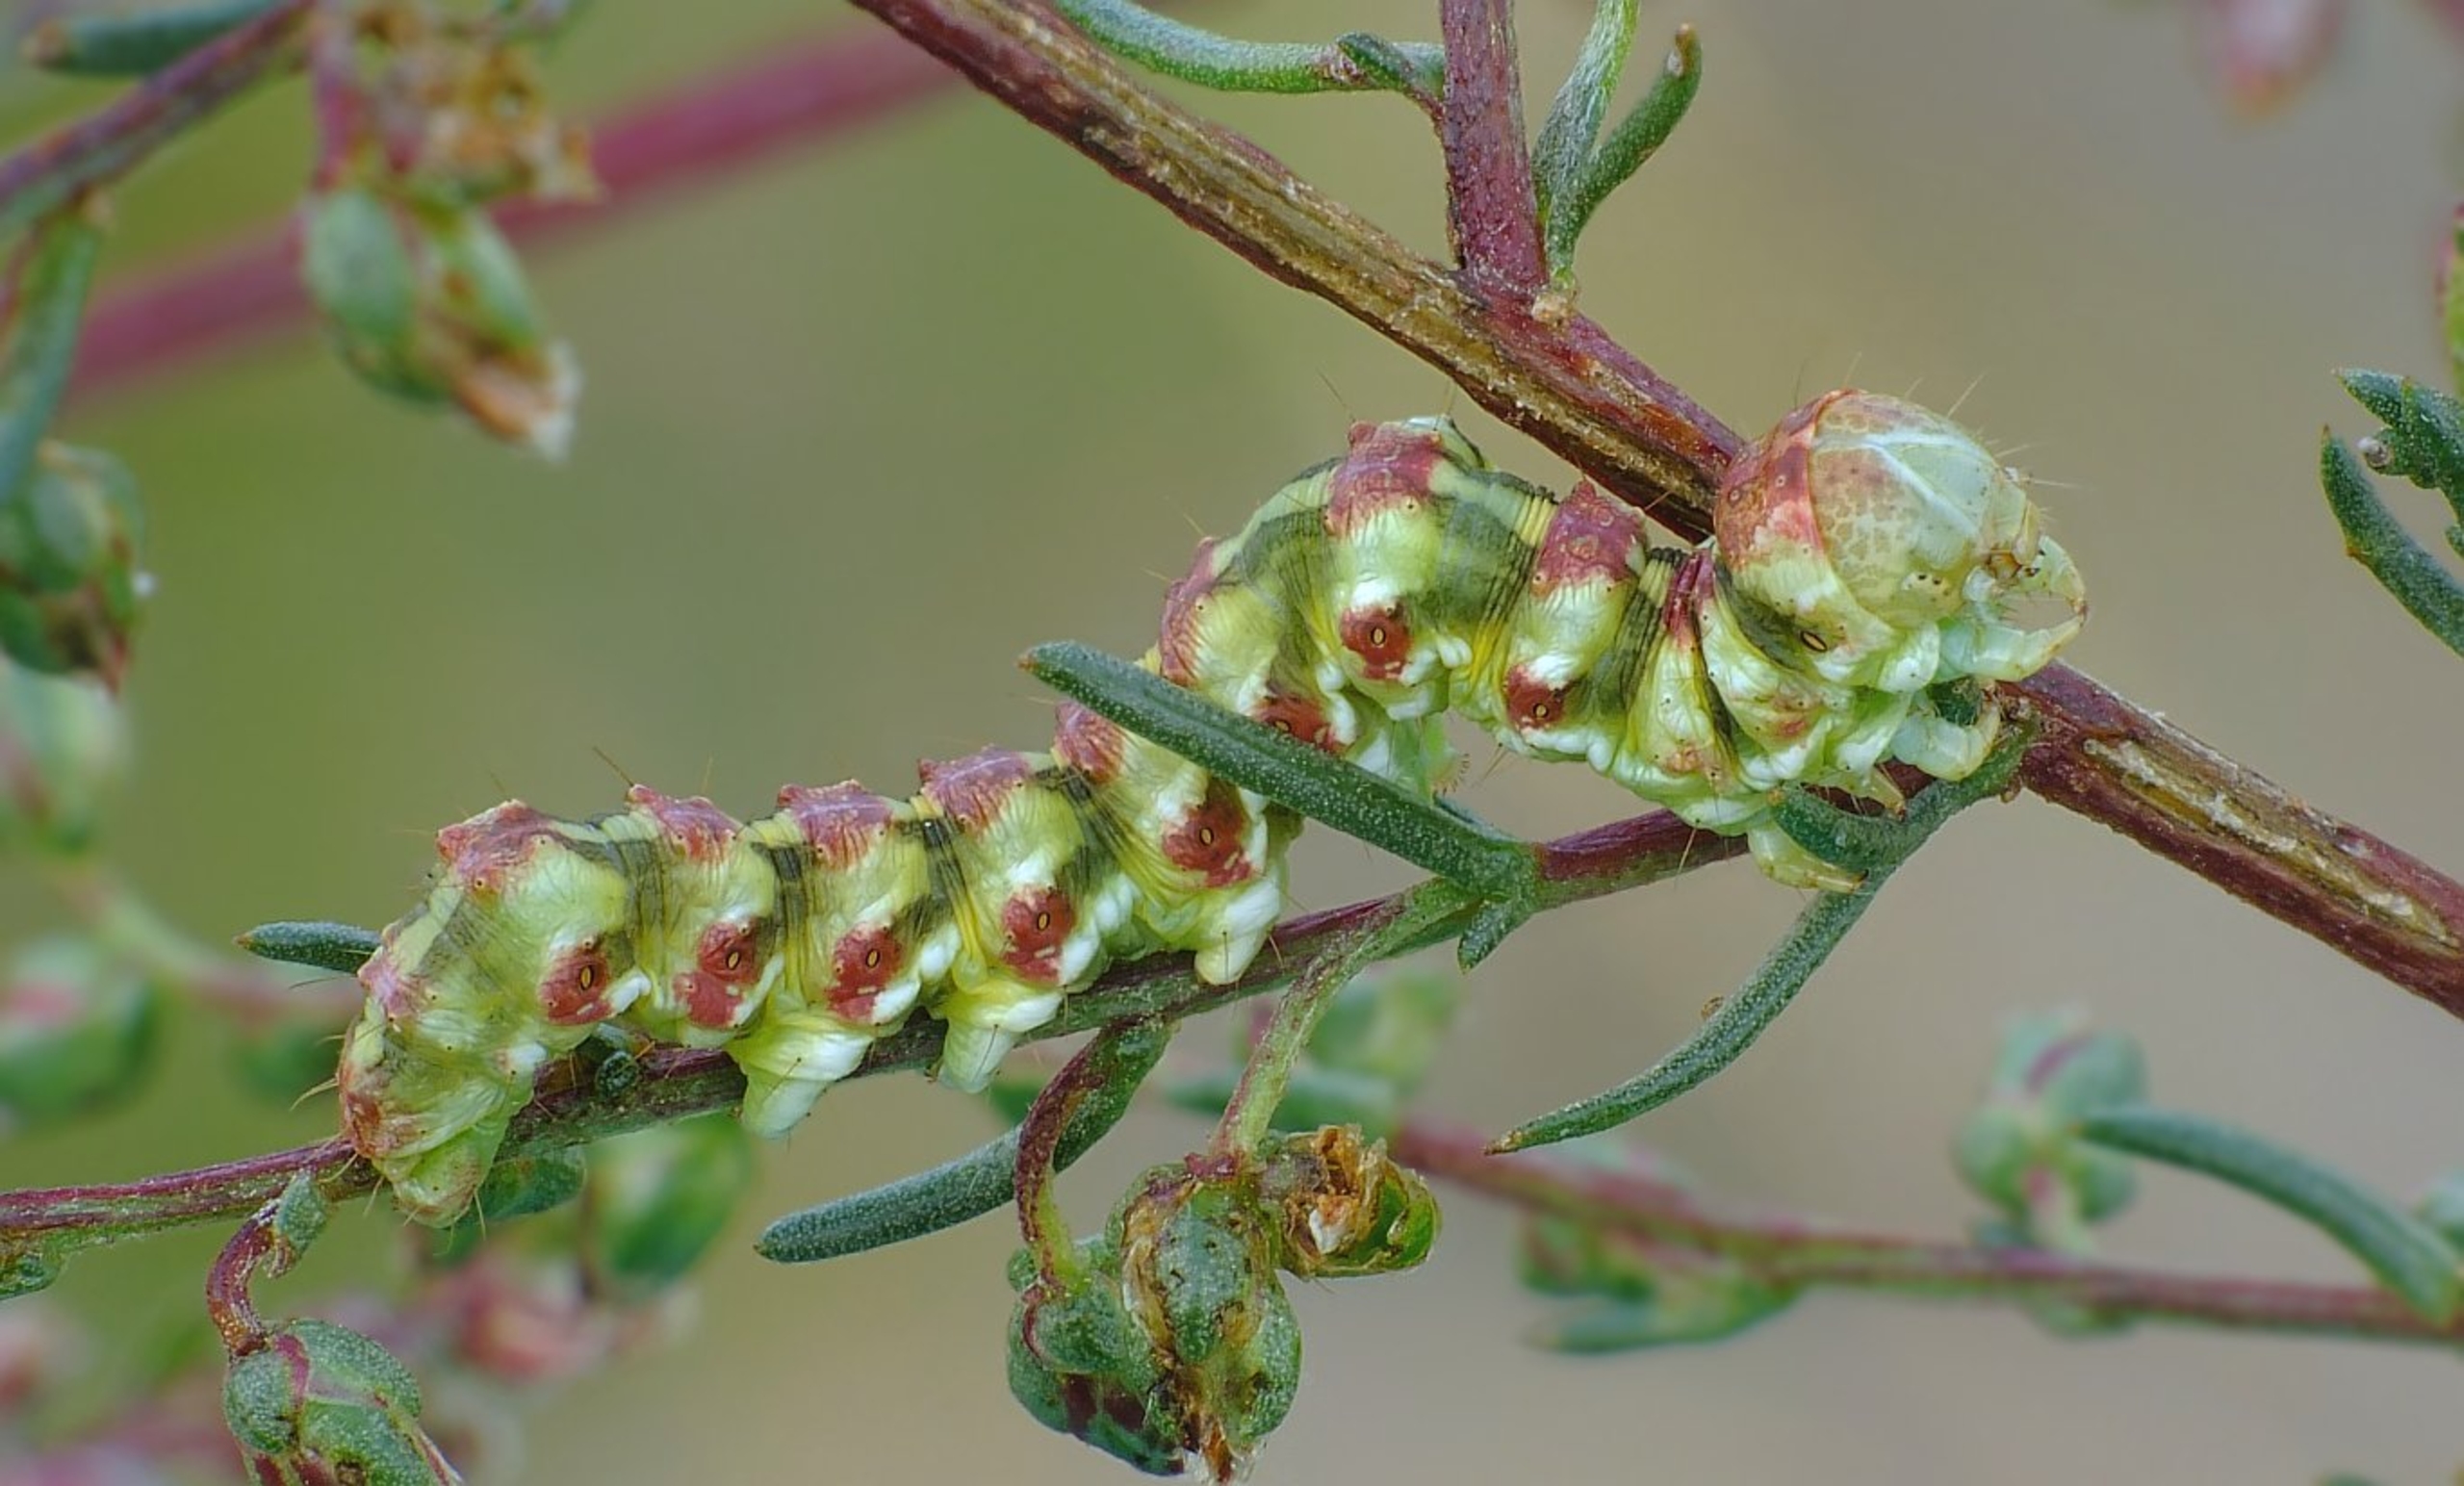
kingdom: Animalia
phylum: Arthropoda
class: Insecta
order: Lepidoptera
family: Noctuidae
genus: Cucullia
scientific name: Cucullia argentea
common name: Sølv-hætteugle
